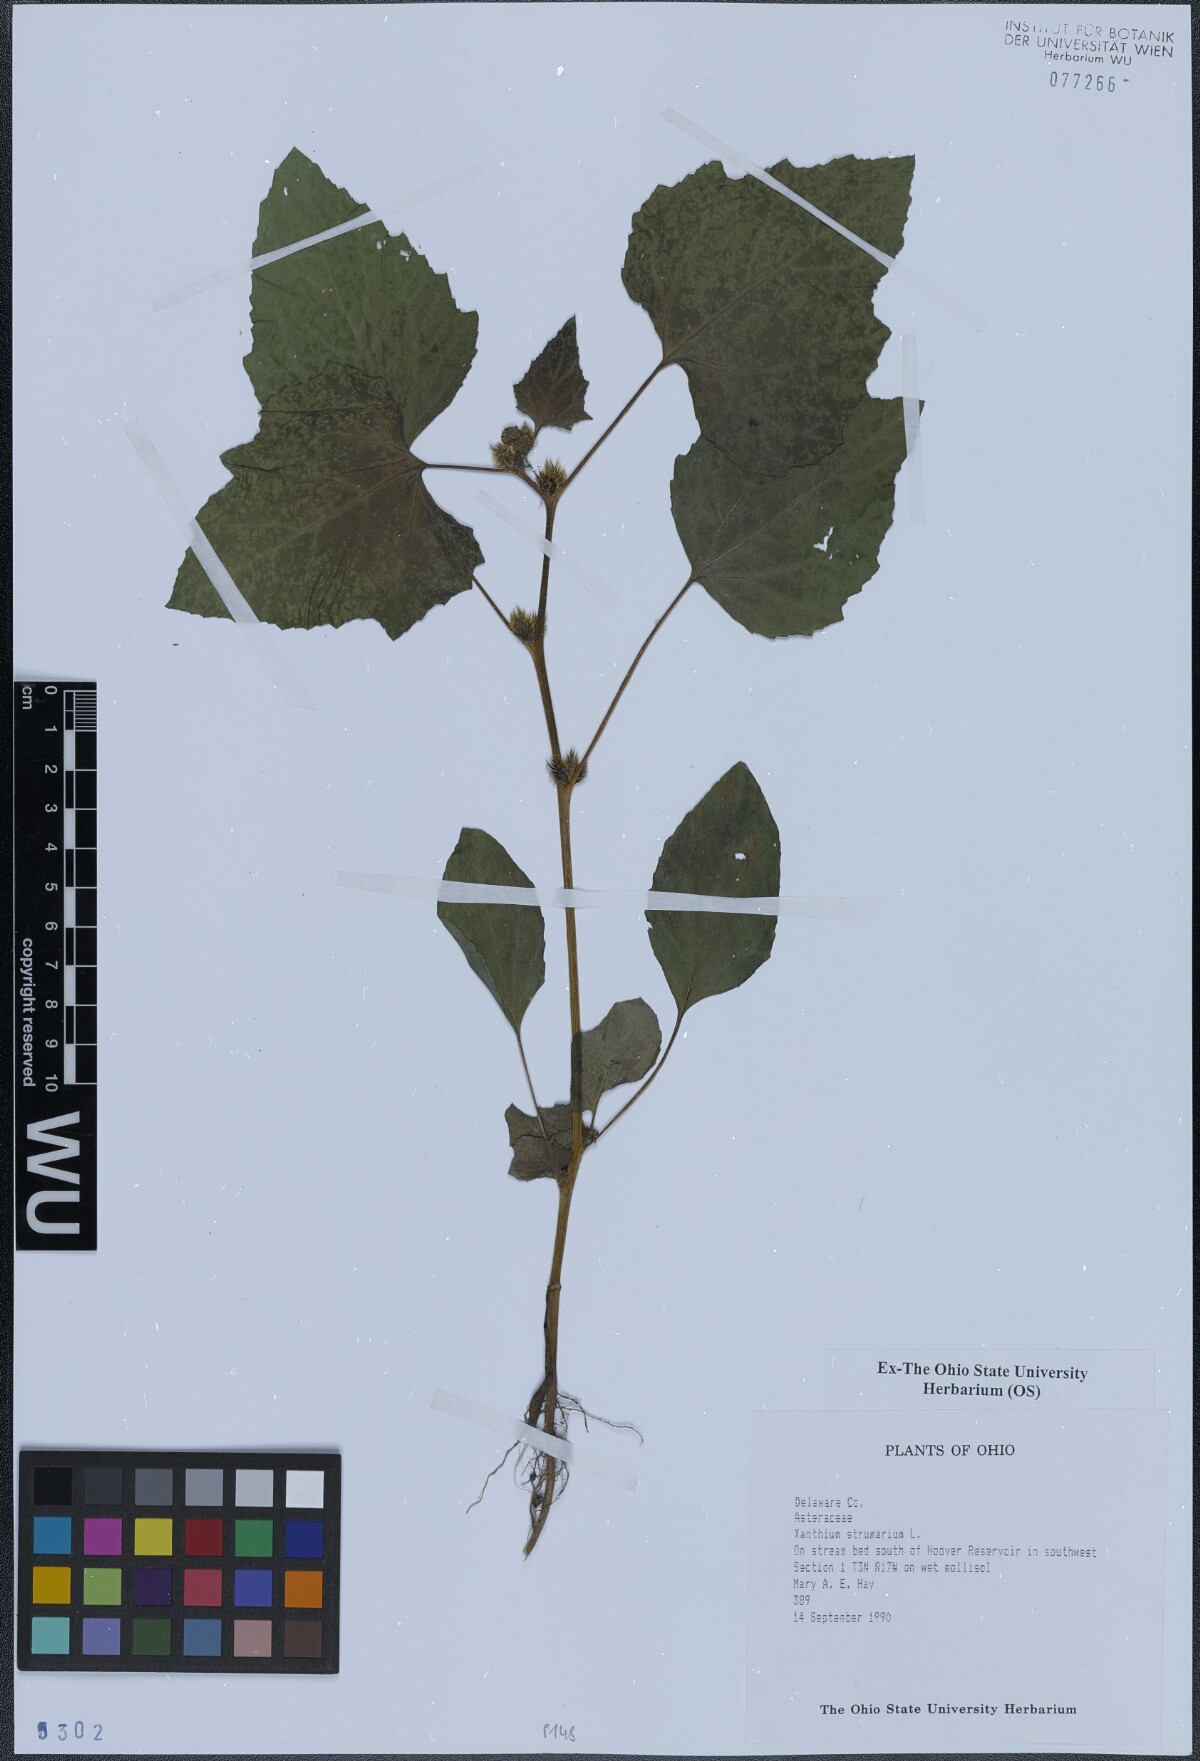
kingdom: Plantae
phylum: Tracheophyta
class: Magnoliopsida
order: Asterales
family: Asteraceae
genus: Xanthium
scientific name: Xanthium strumarium
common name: Rough cocklebur
